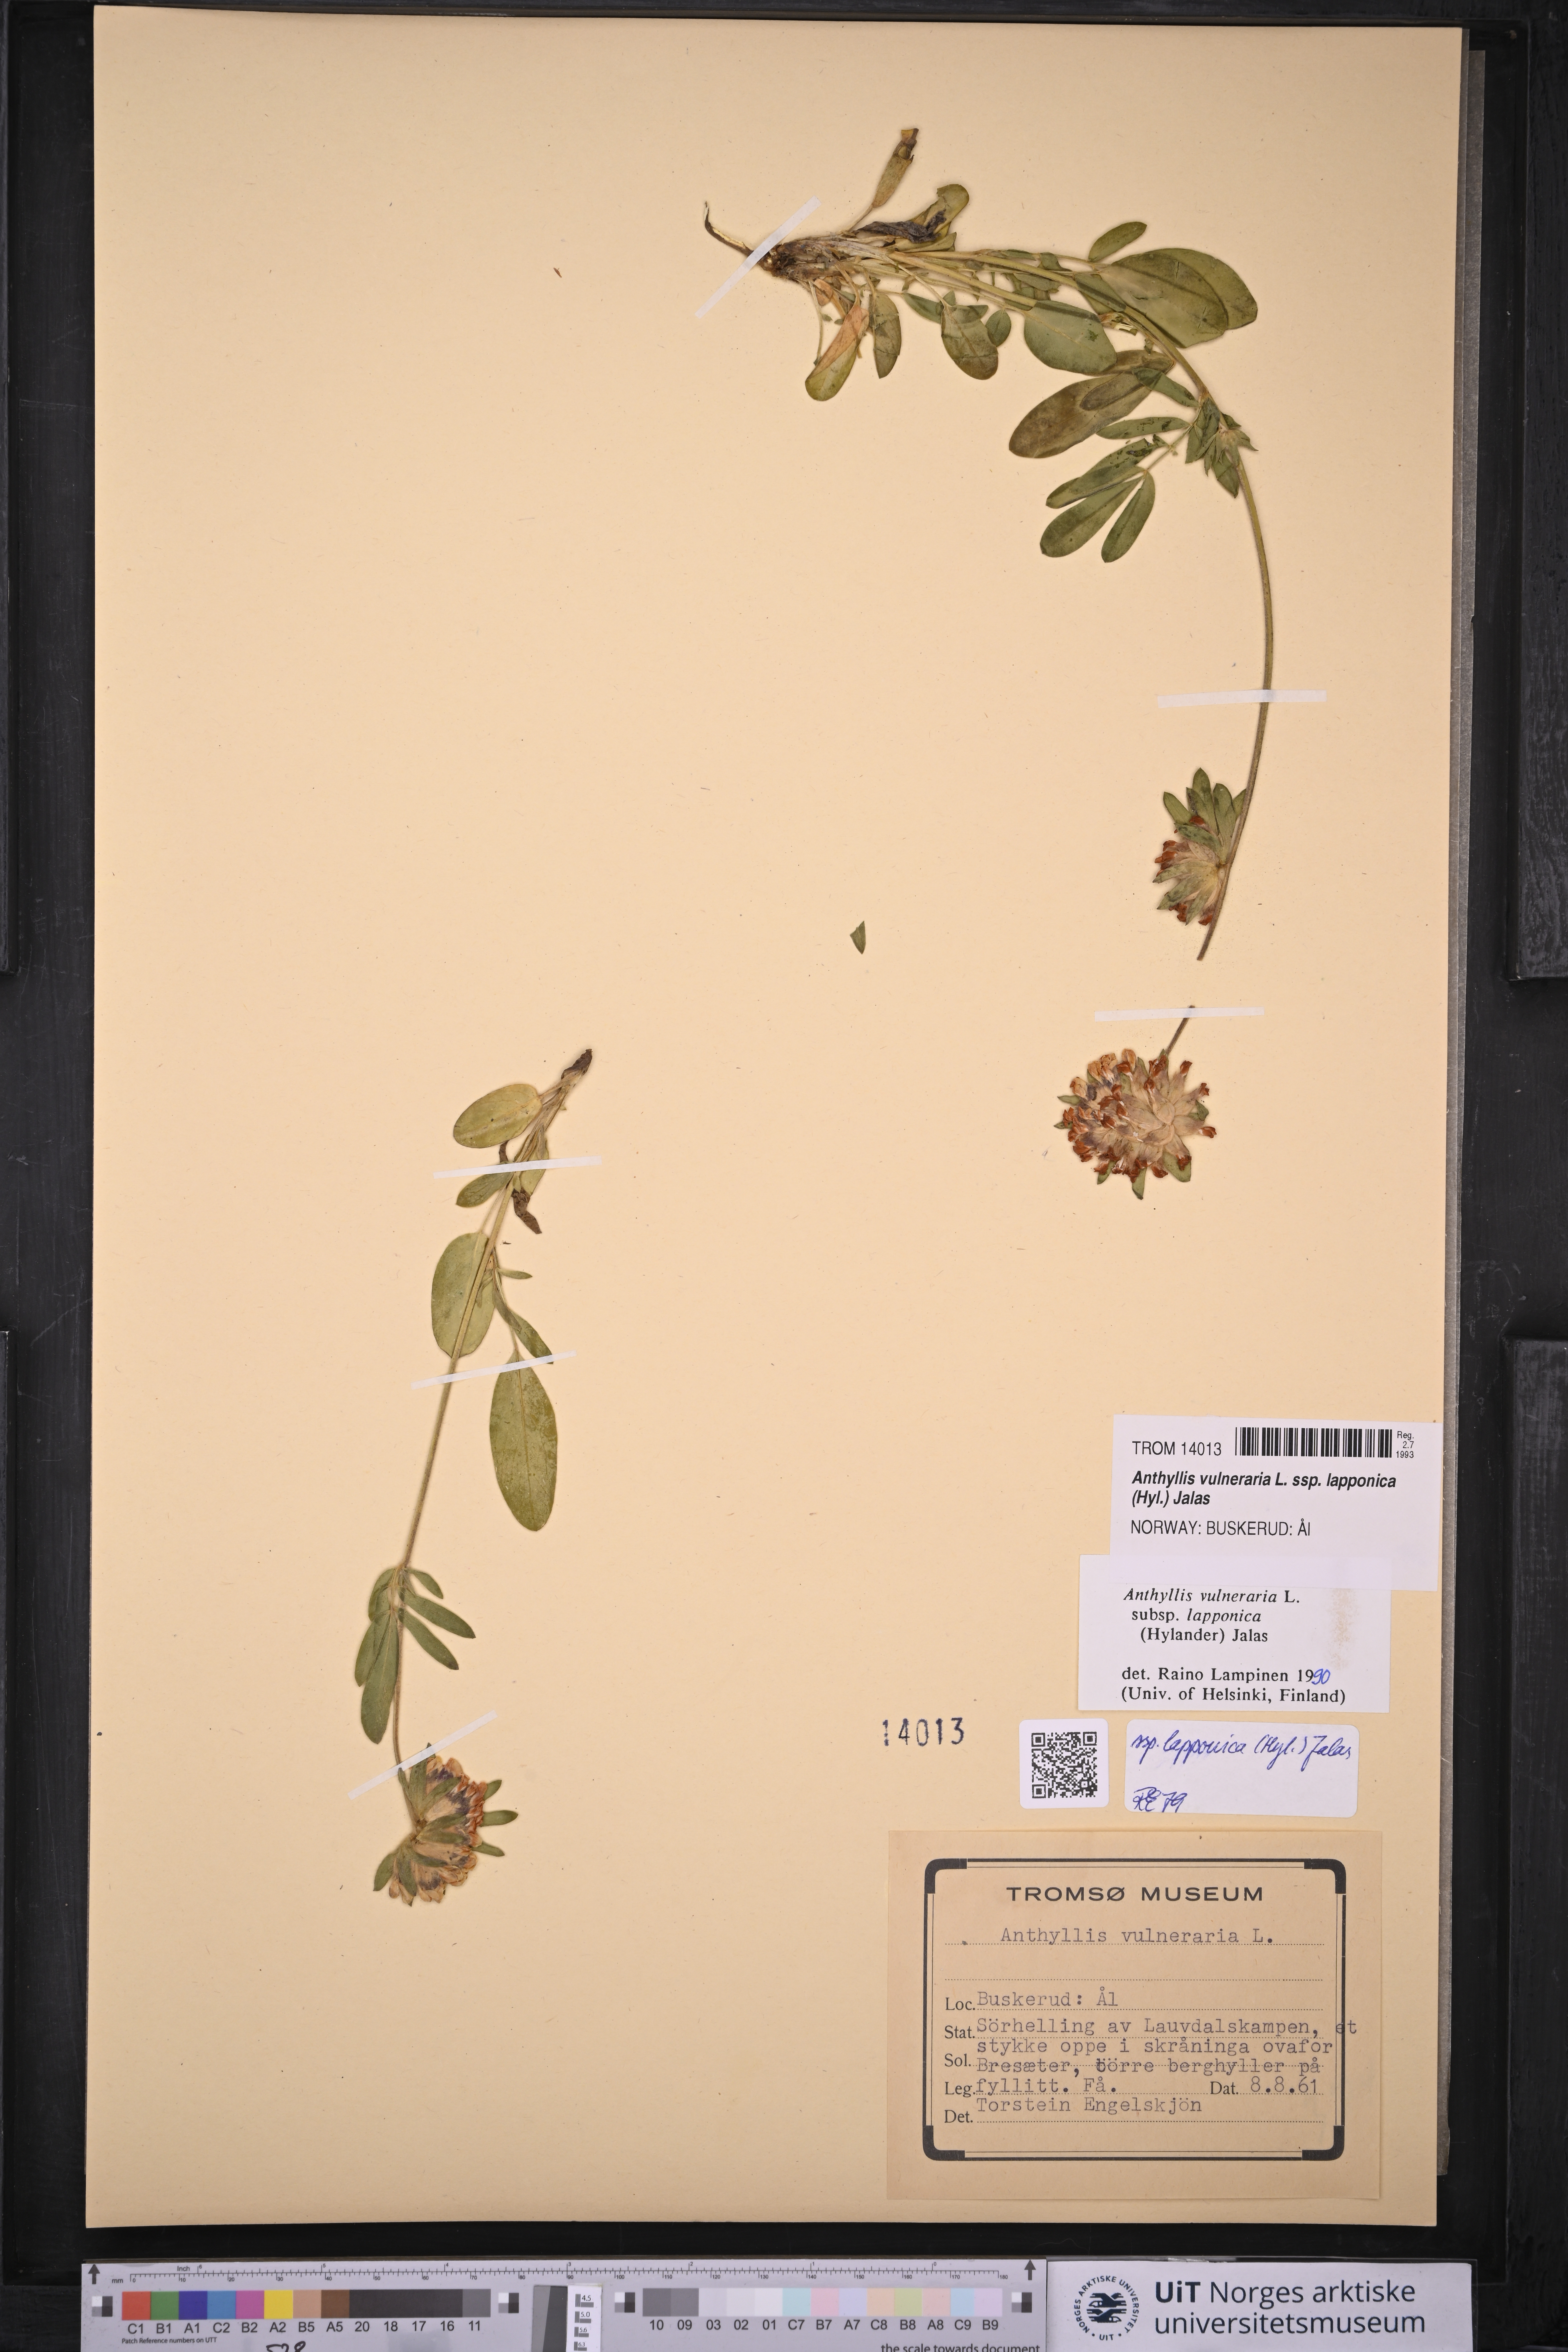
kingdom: Plantae
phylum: Tracheophyta
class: Magnoliopsida
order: Fabales
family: Fabaceae
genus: Anthyllis
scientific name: Anthyllis vulneraria
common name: Kidney vetch
